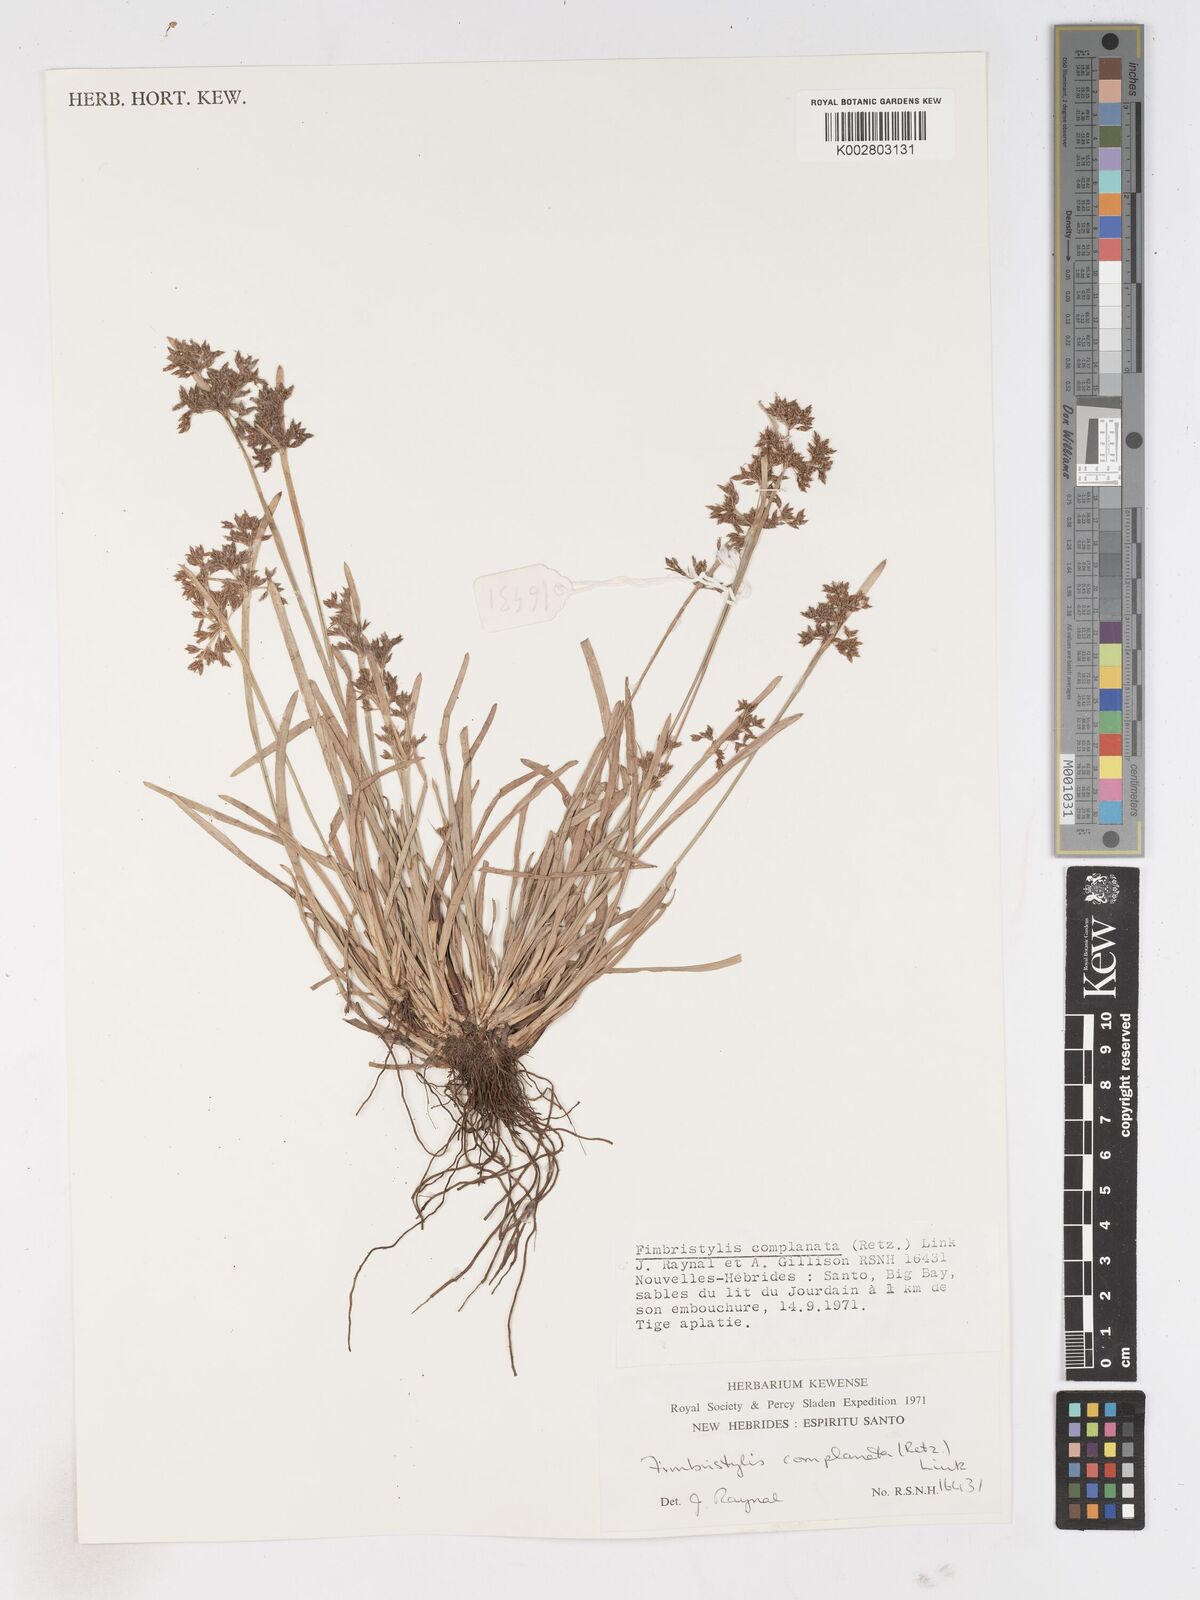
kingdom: Plantae
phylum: Tracheophyta
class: Liliopsida
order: Poales
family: Cyperaceae
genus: Fimbristylis
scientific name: Fimbristylis complanata
